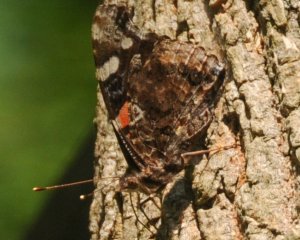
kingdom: Animalia
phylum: Arthropoda
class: Insecta
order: Lepidoptera
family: Nymphalidae
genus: Vanessa
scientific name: Vanessa atalanta
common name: Red Admiral
